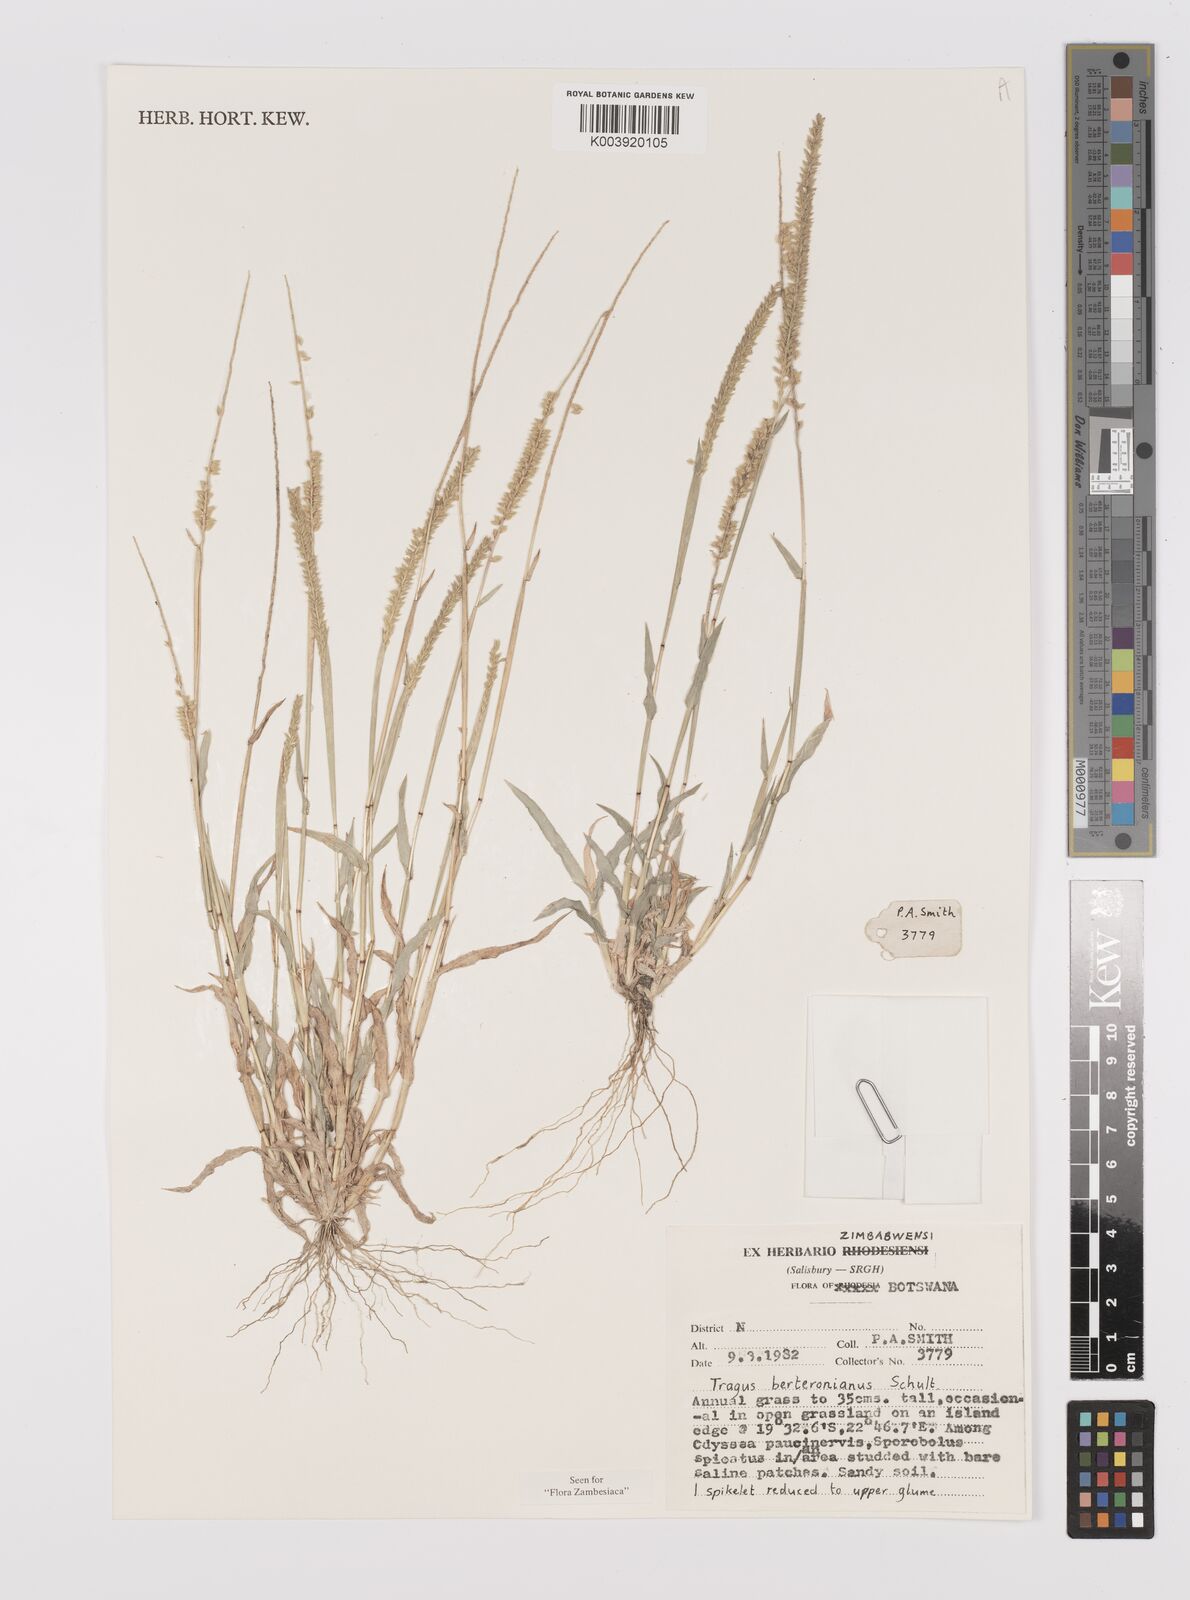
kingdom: Plantae
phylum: Tracheophyta
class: Liliopsida
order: Poales
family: Poaceae
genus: Tragus
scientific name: Tragus berteronianus
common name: African bur-grass
